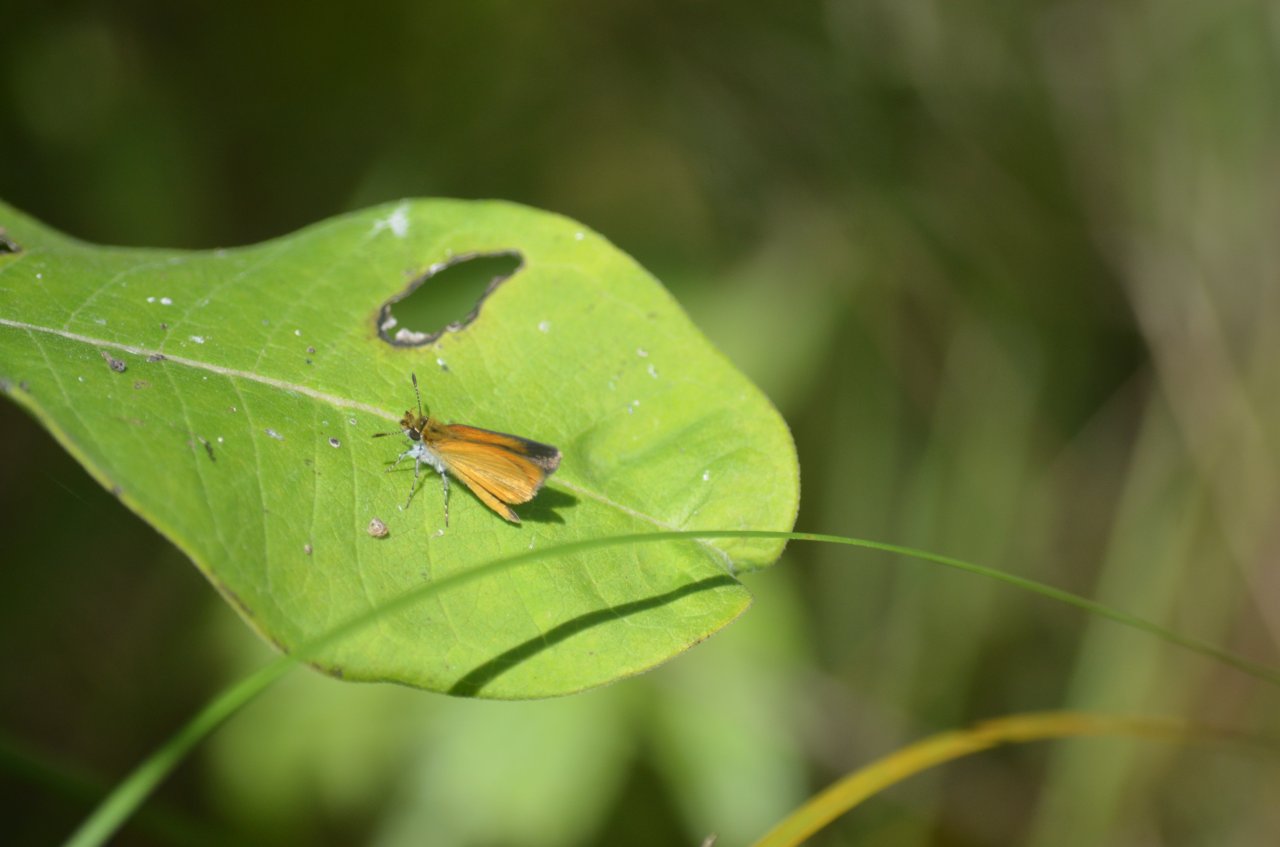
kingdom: Animalia
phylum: Arthropoda
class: Insecta
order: Lepidoptera
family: Hesperiidae
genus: Ancyloxypha
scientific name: Ancyloxypha numitor
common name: Least Skipper
